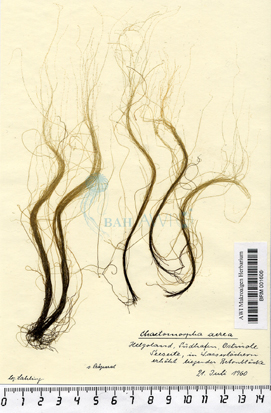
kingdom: Plantae
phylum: Chlorophyta
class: Ulvophyceae
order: Cladophorales
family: Cladophoraceae
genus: Chaetomorpha
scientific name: Chaetomorpha aerea
